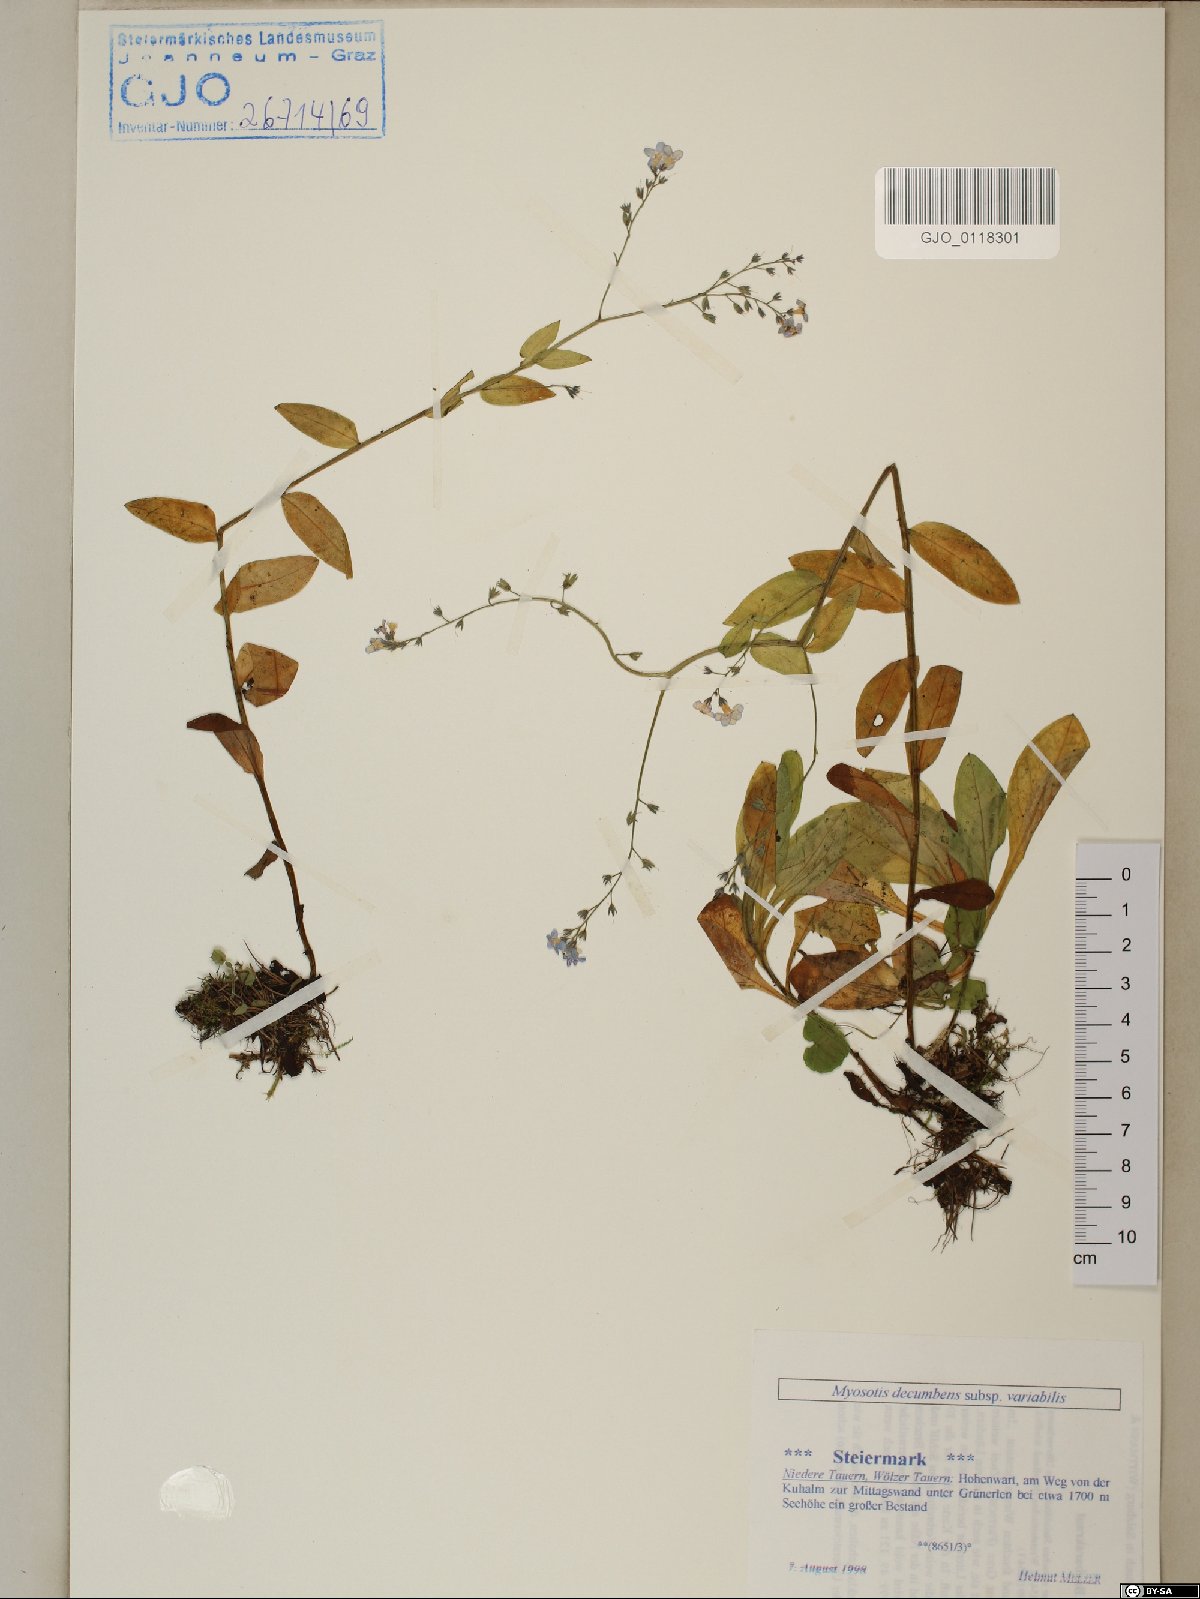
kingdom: Plantae
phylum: Tracheophyta
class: Magnoliopsida
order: Boraginales
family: Boraginaceae
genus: Myosotis
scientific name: Myosotis decumbens
